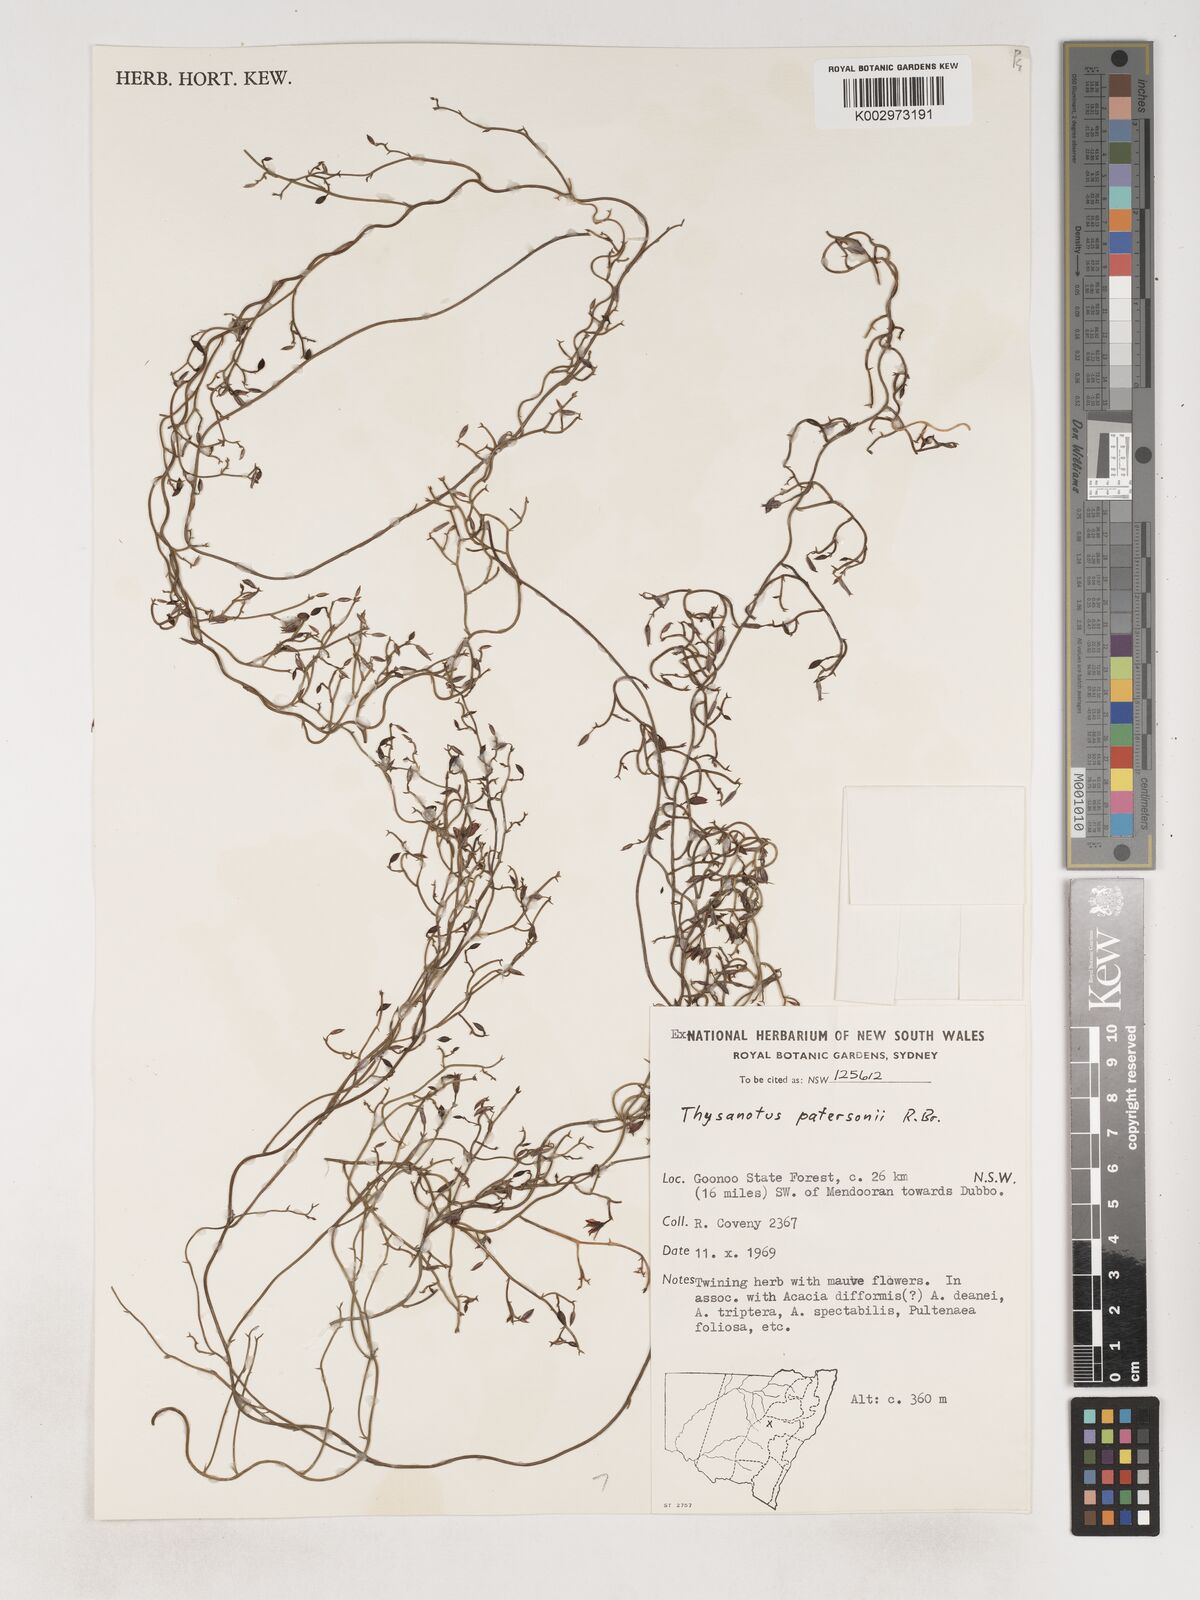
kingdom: Plantae
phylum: Tracheophyta
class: Liliopsida
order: Asparagales
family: Asparagaceae
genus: Thysanotus
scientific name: Thysanotus patersonii
